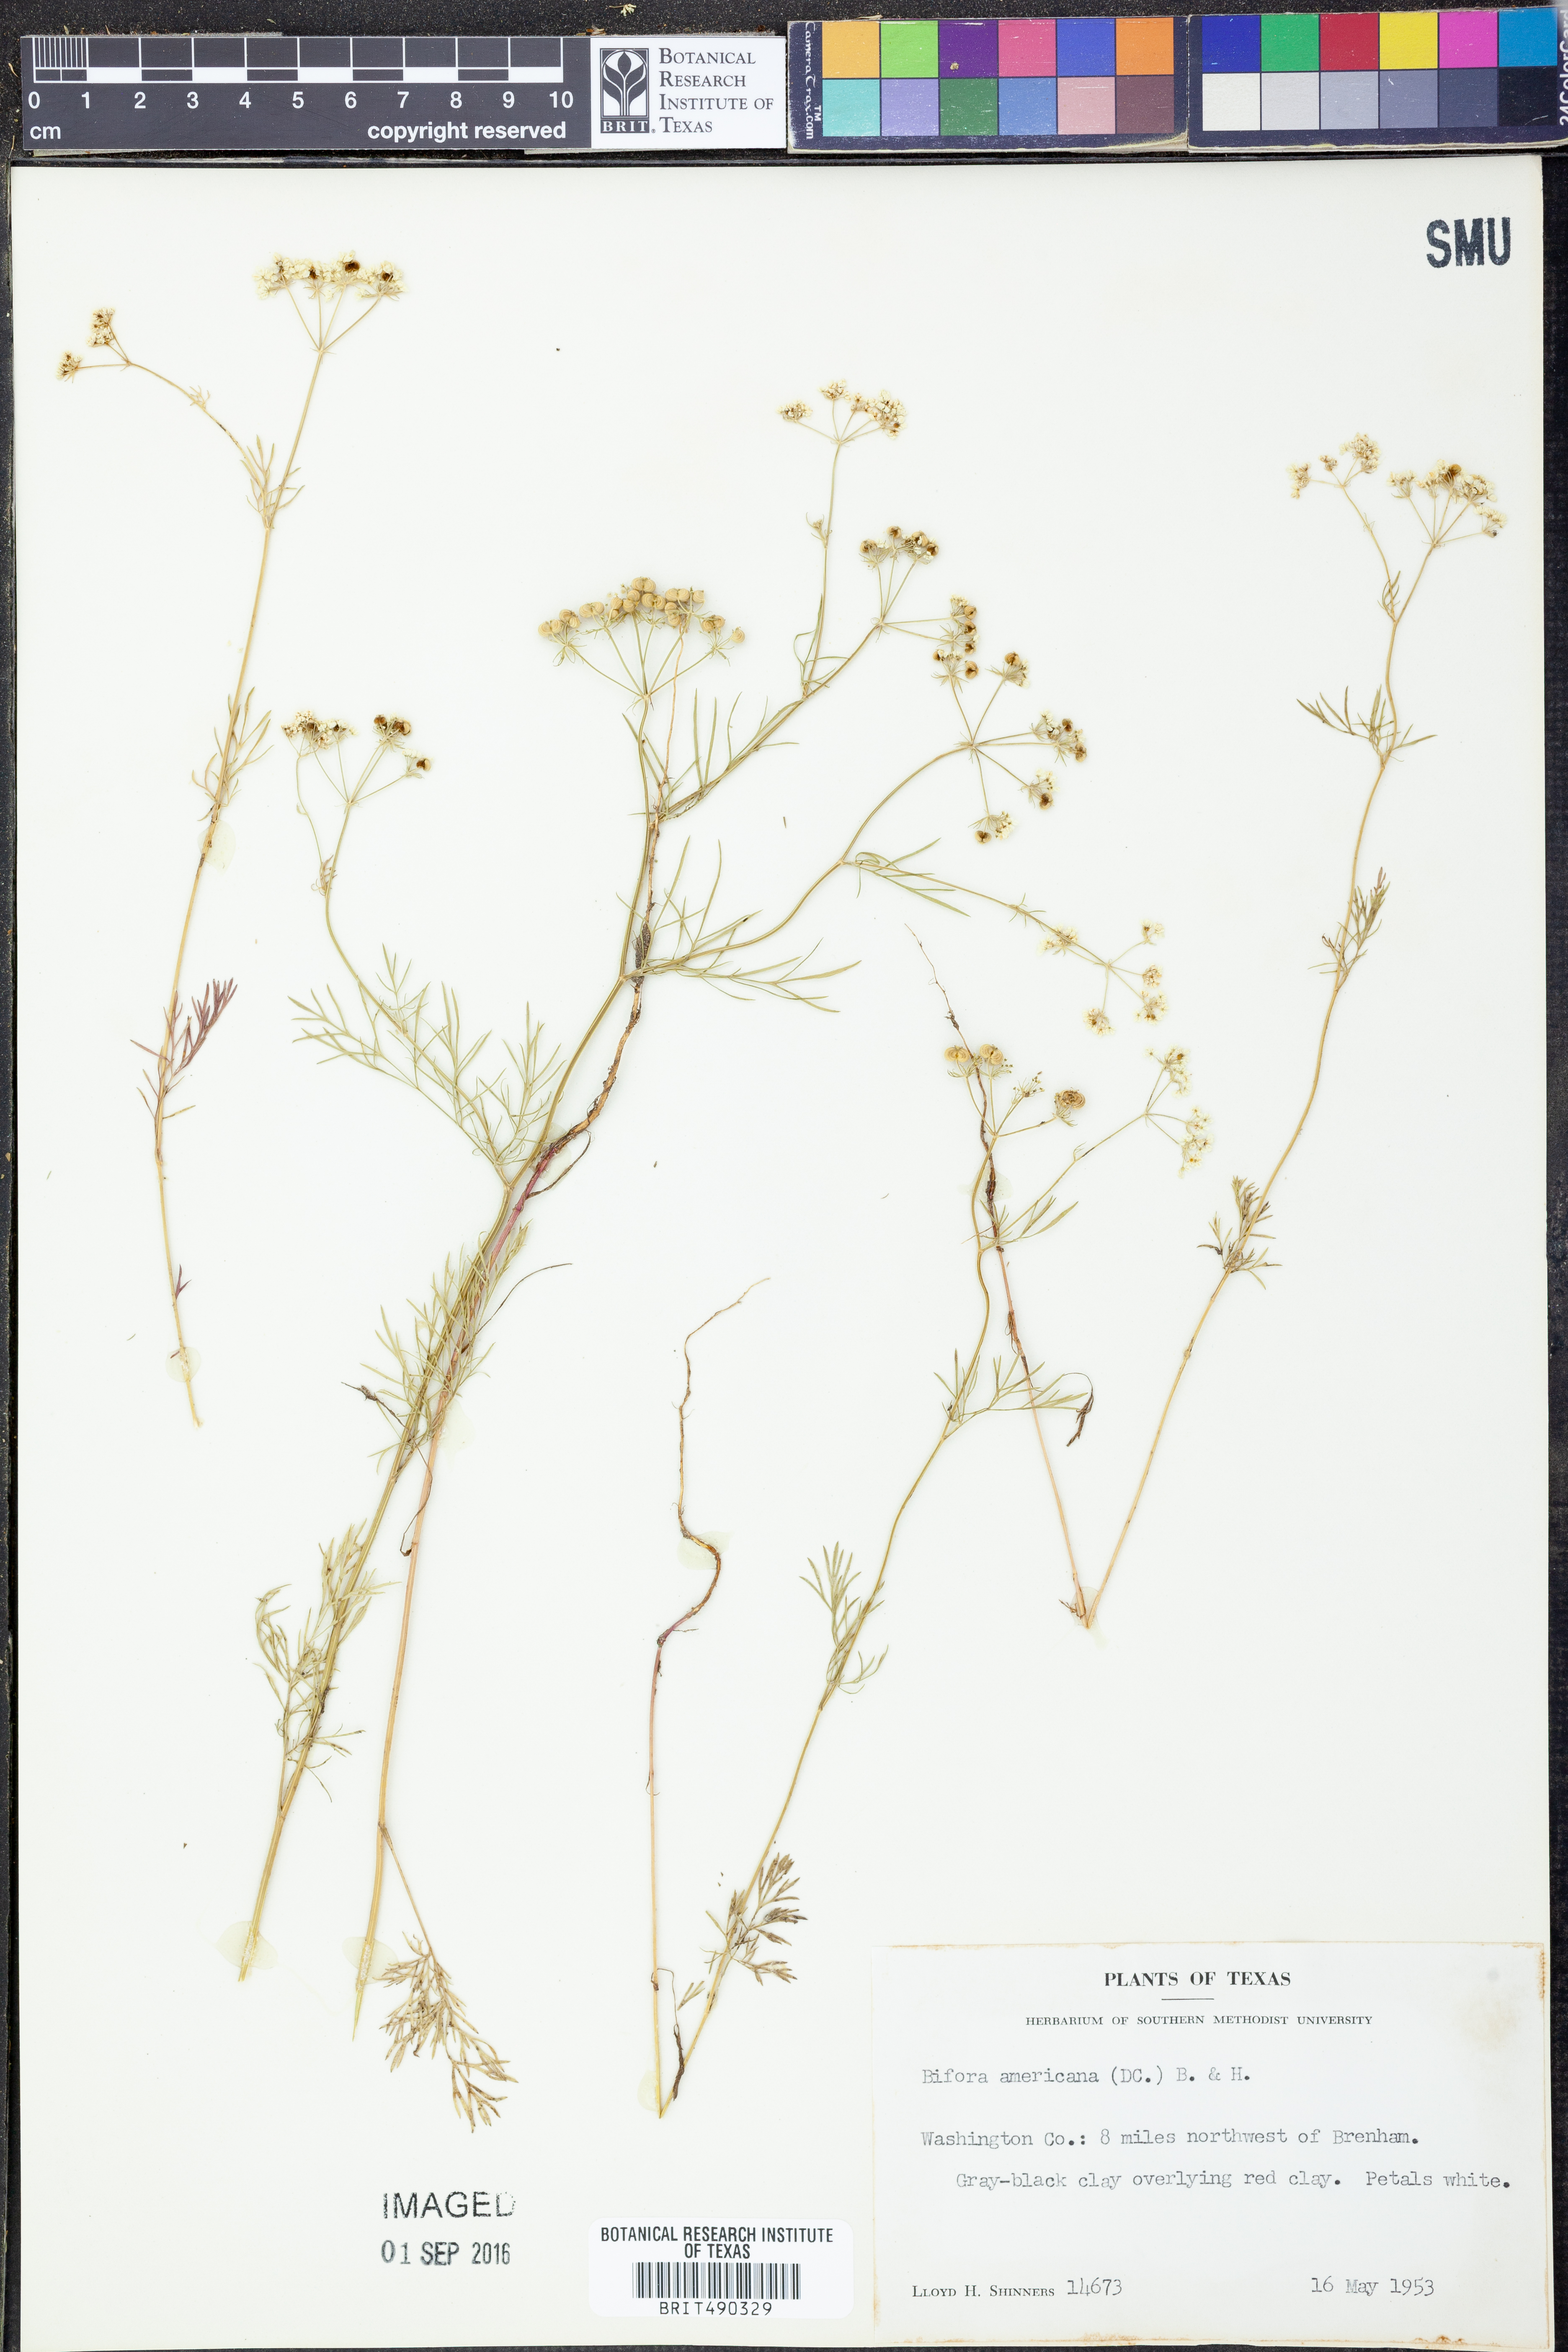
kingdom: Plantae
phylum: Tracheophyta
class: Magnoliopsida
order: Apiales
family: Apiaceae
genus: Atrema
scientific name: Atrema americanum
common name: Prairie-bishop
